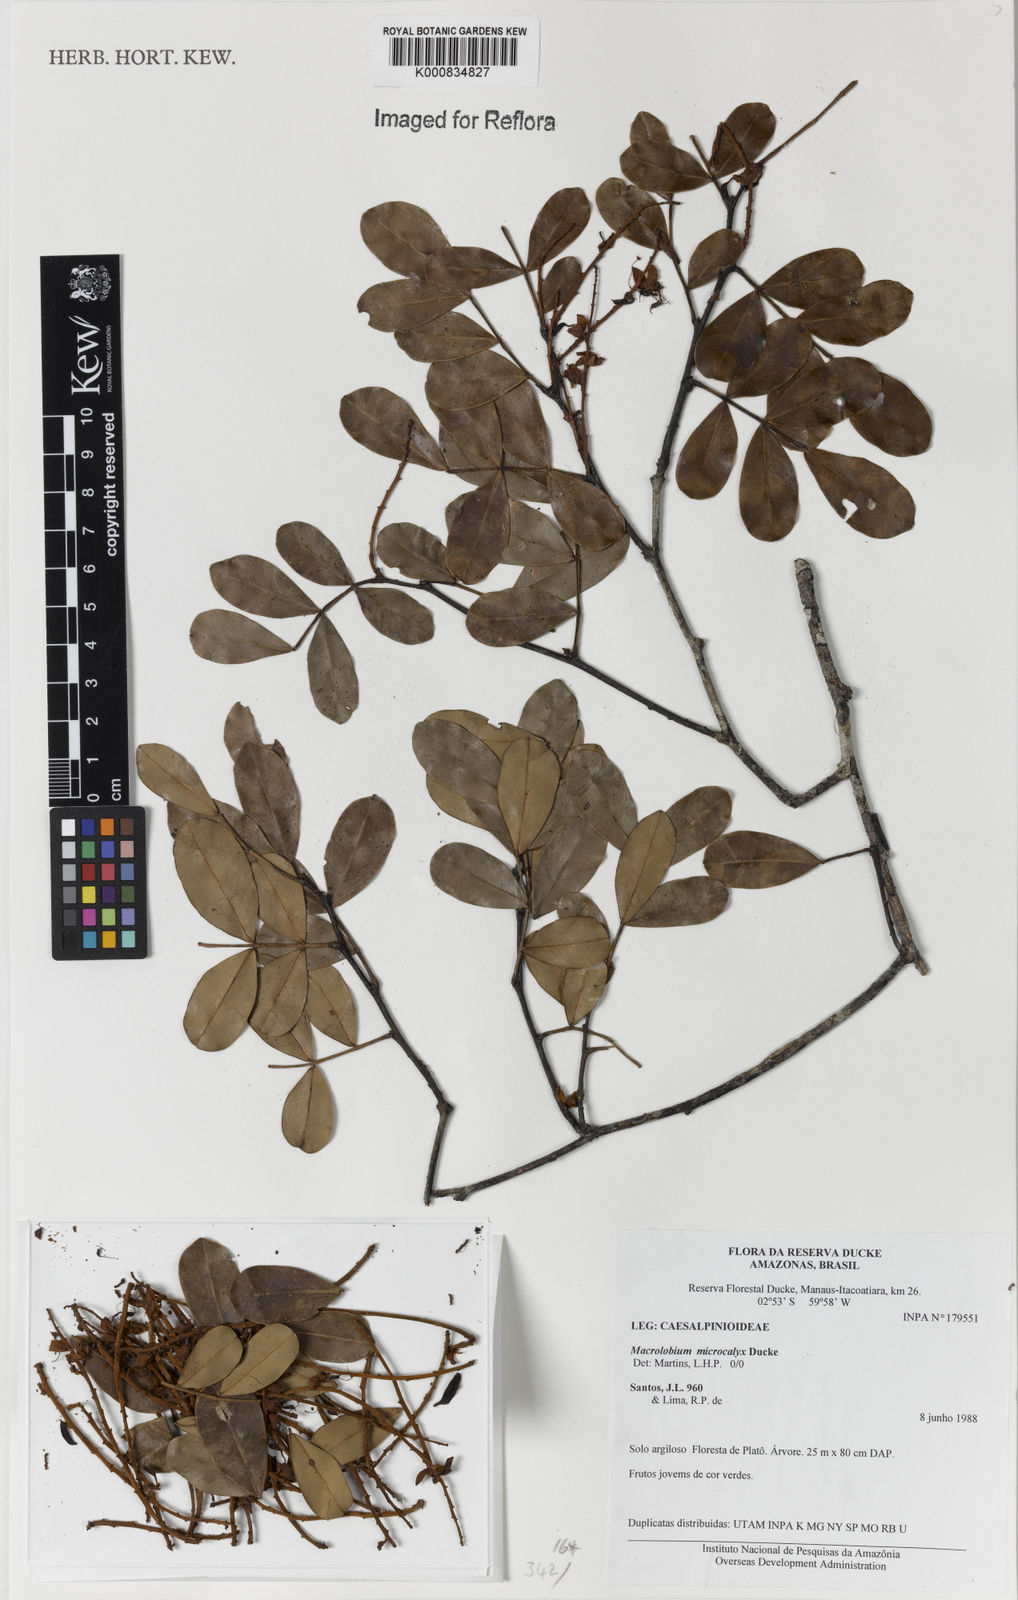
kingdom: Plantae
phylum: Tracheophyta
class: Magnoliopsida
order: Fabales
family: Fabaceae
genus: Macrolobium
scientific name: Macrolobium microcalyx
